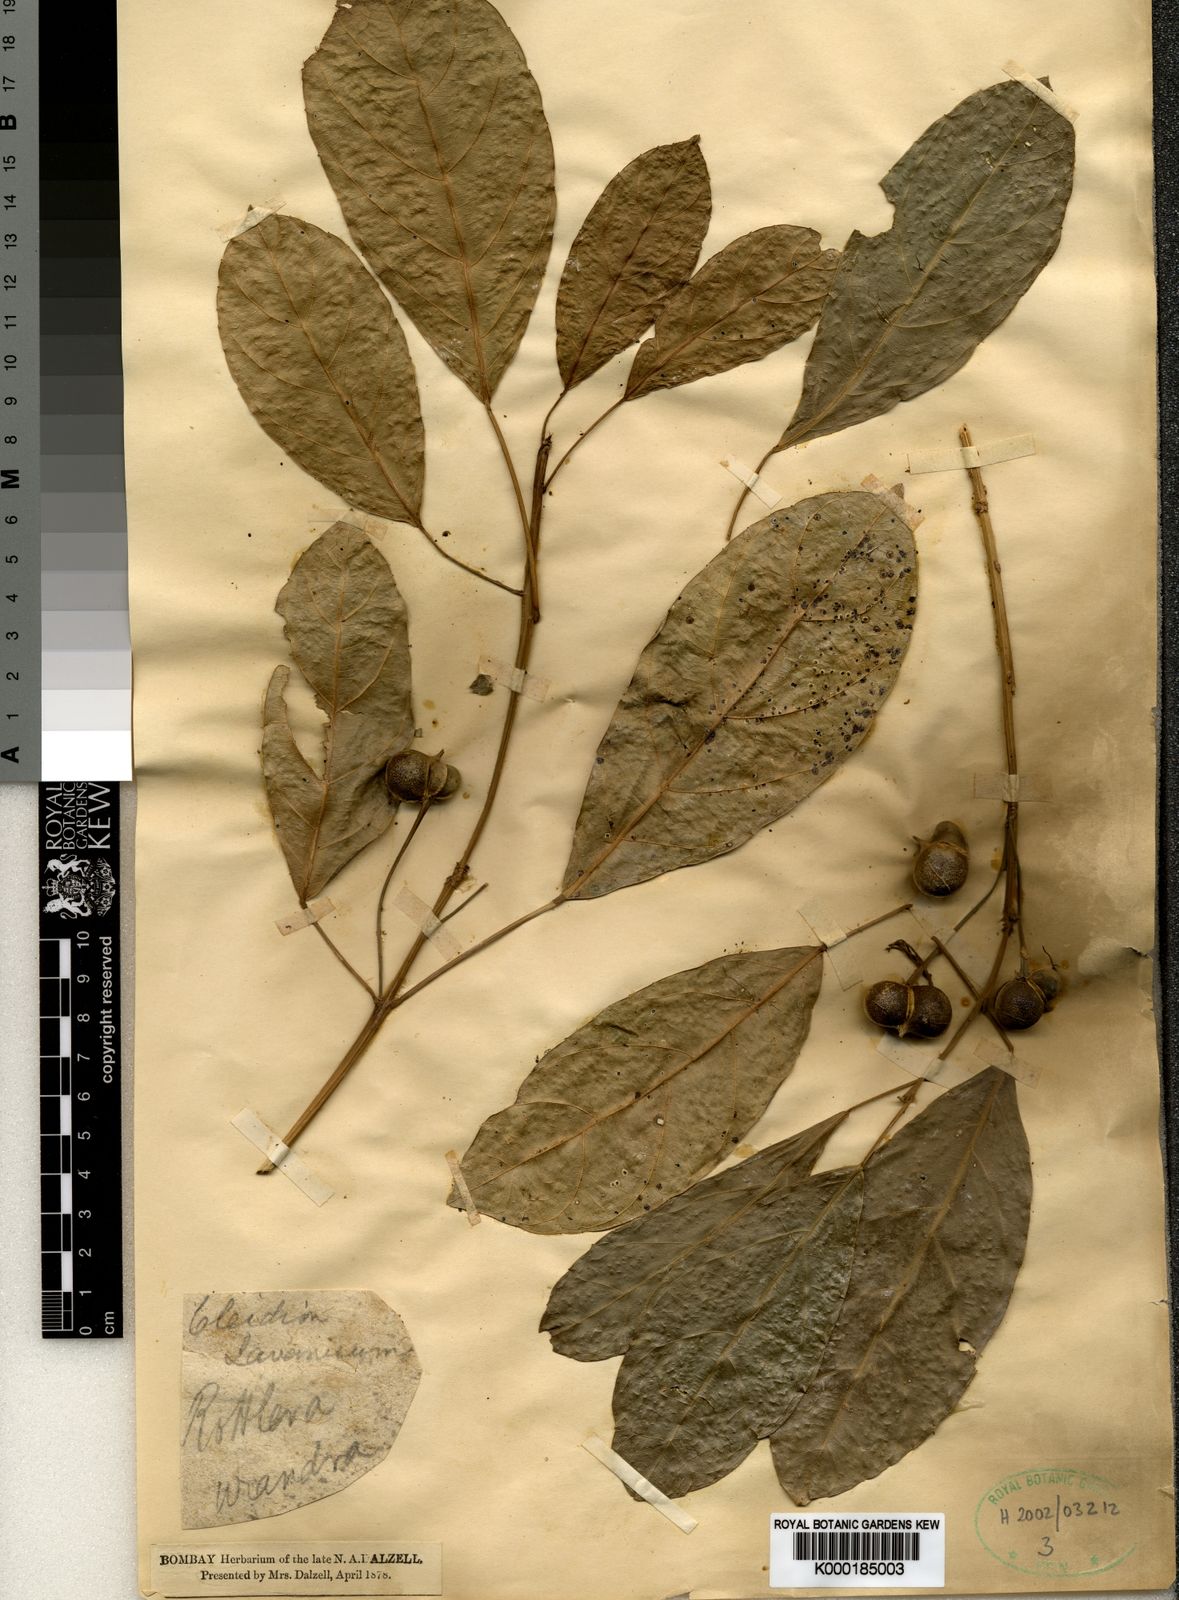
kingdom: Plantae
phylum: Tracheophyta
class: Magnoliopsida
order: Malpighiales
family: Euphorbiaceae
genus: Cleidion
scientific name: Cleidion javanicum
